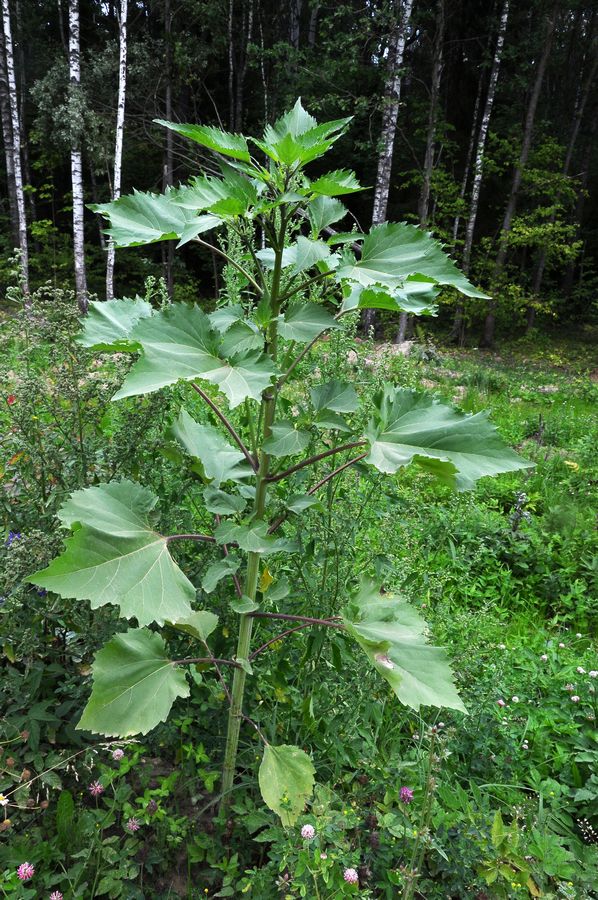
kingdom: Plantae
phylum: Tracheophyta
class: Magnoliopsida
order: Asterales
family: Asteraceae
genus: Cyclachaena
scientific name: Cyclachaena xanthiifolia
